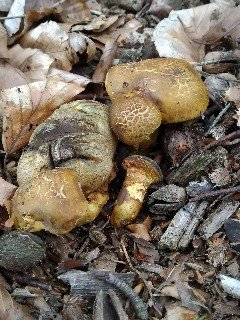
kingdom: Fungi
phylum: Basidiomycota
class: Agaricomycetes
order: Boletales
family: Boletaceae
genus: Pseudoboletus
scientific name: Pseudoboletus parasiticus
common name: snyltende rørhat
